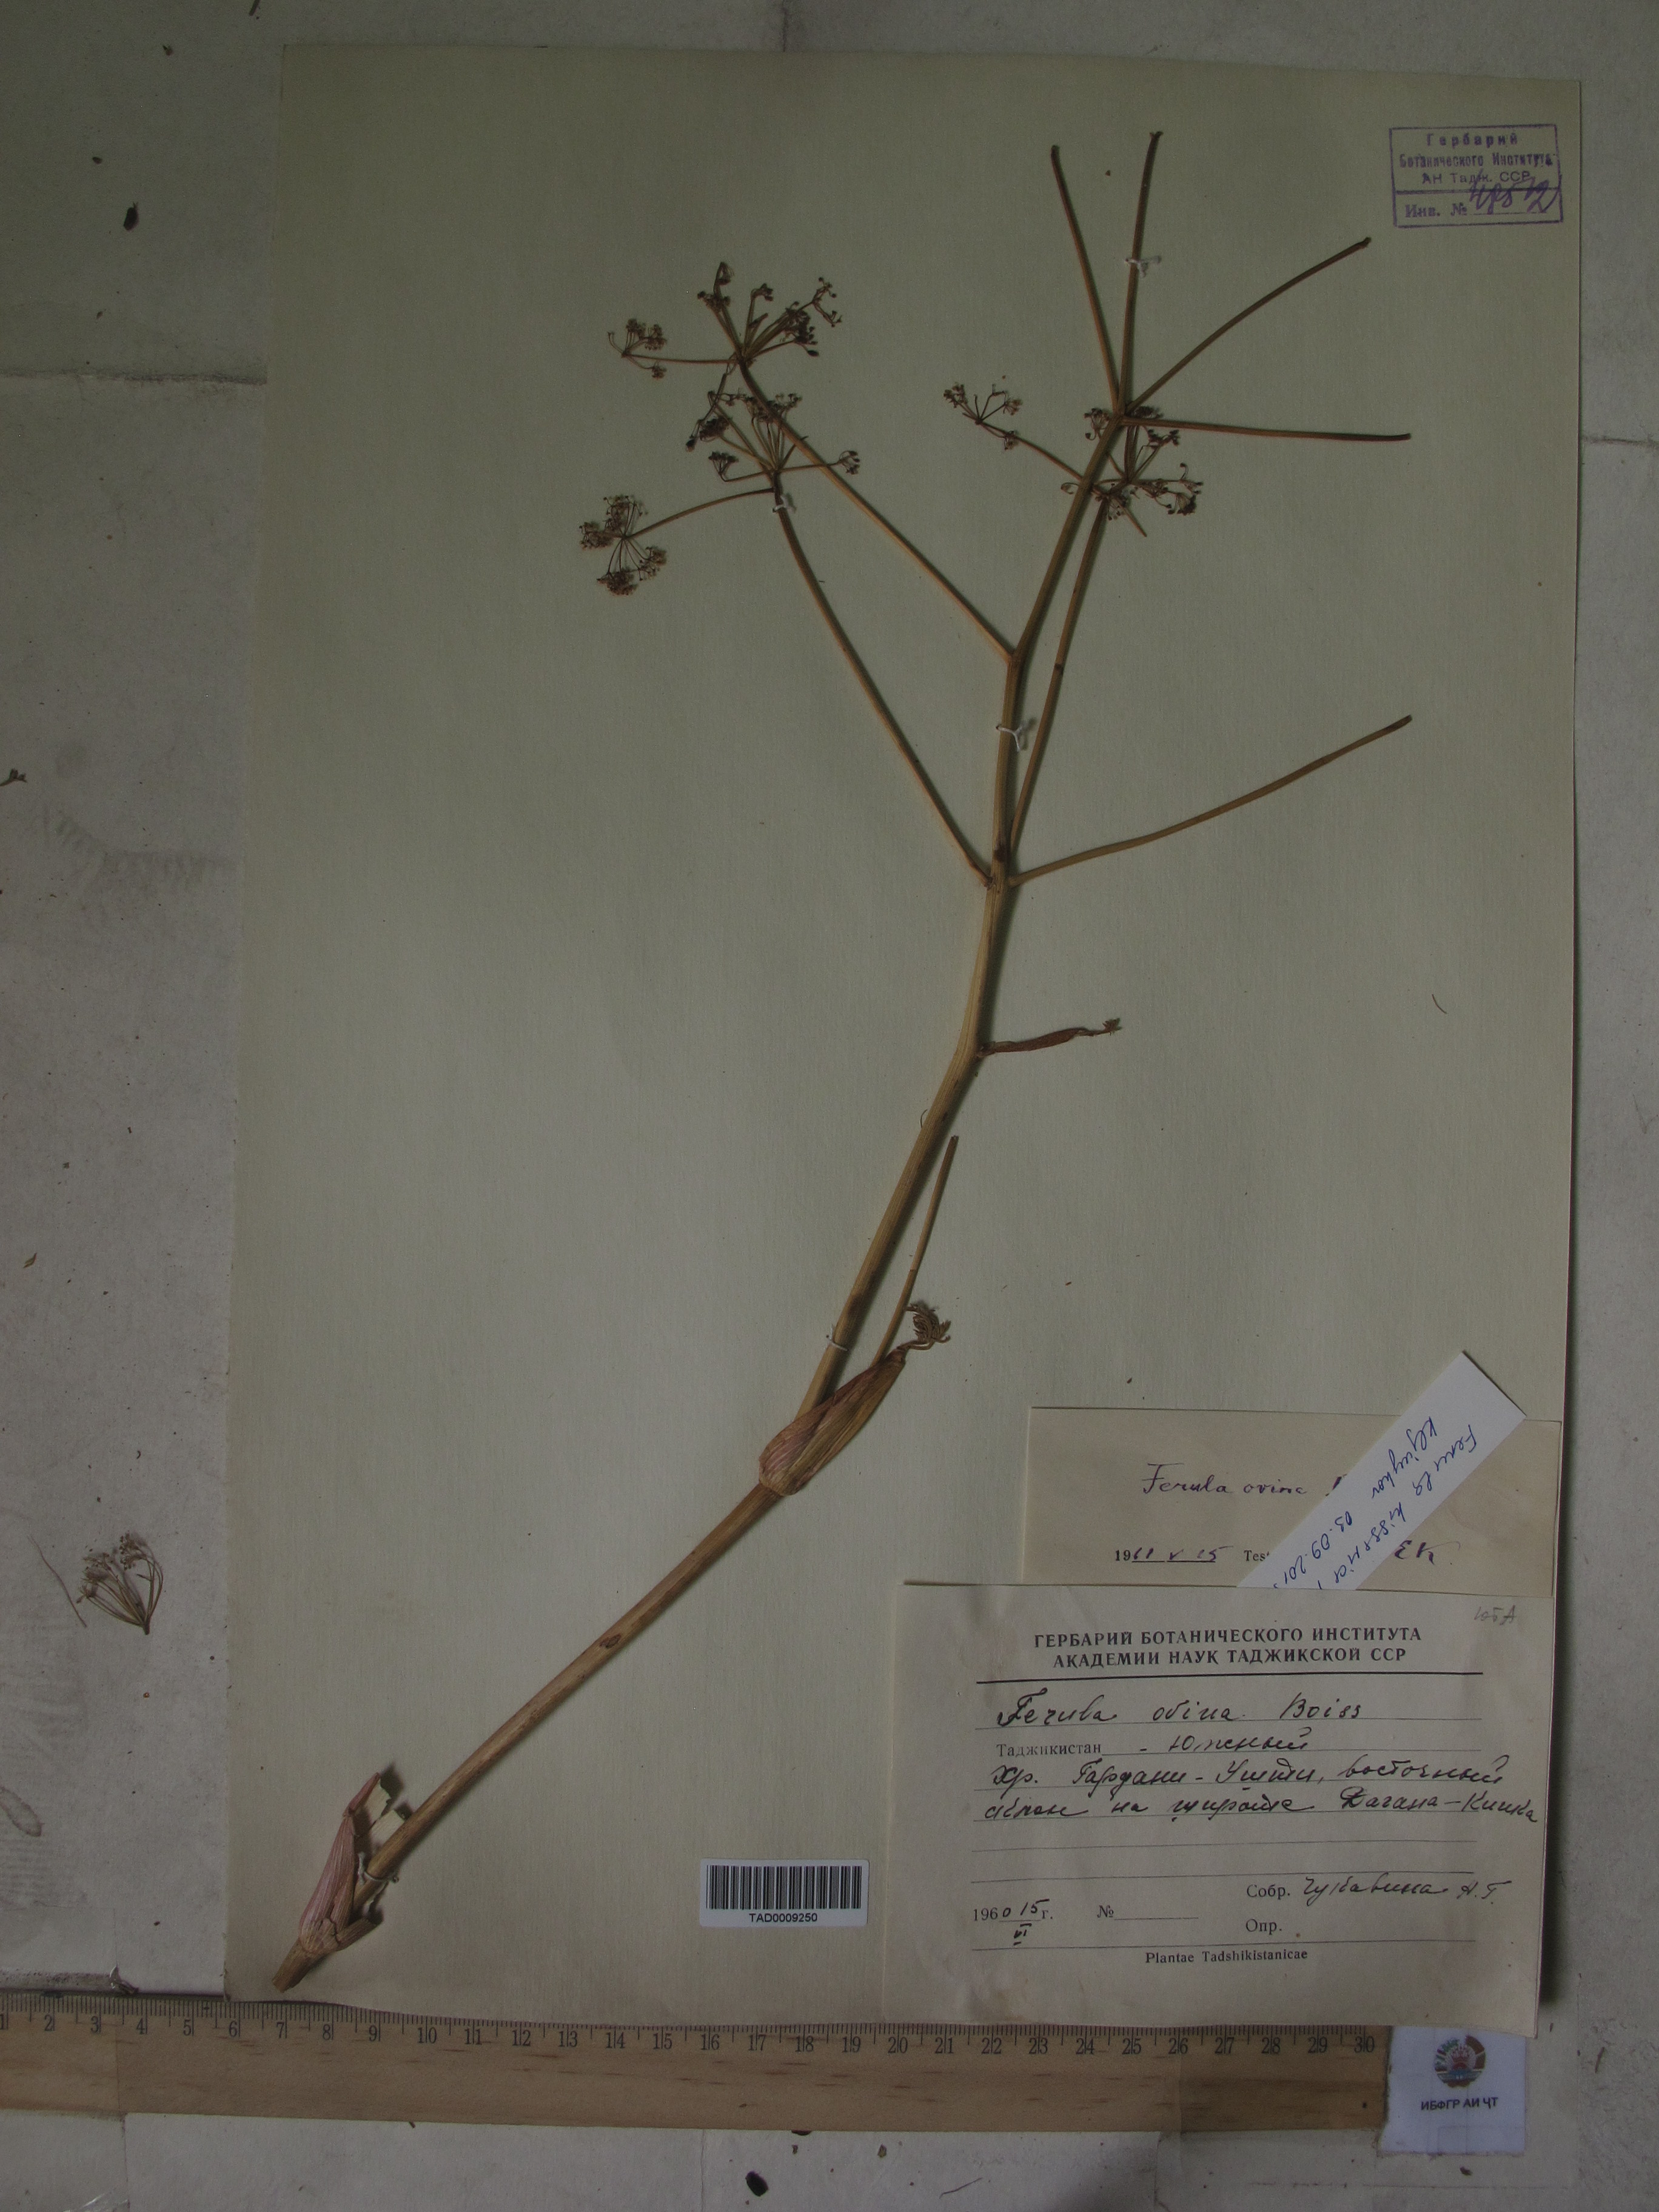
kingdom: Plantae
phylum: Tracheophyta
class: Magnoliopsida
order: Apiales
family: Apiaceae
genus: Ferula
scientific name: Ferula ovina
